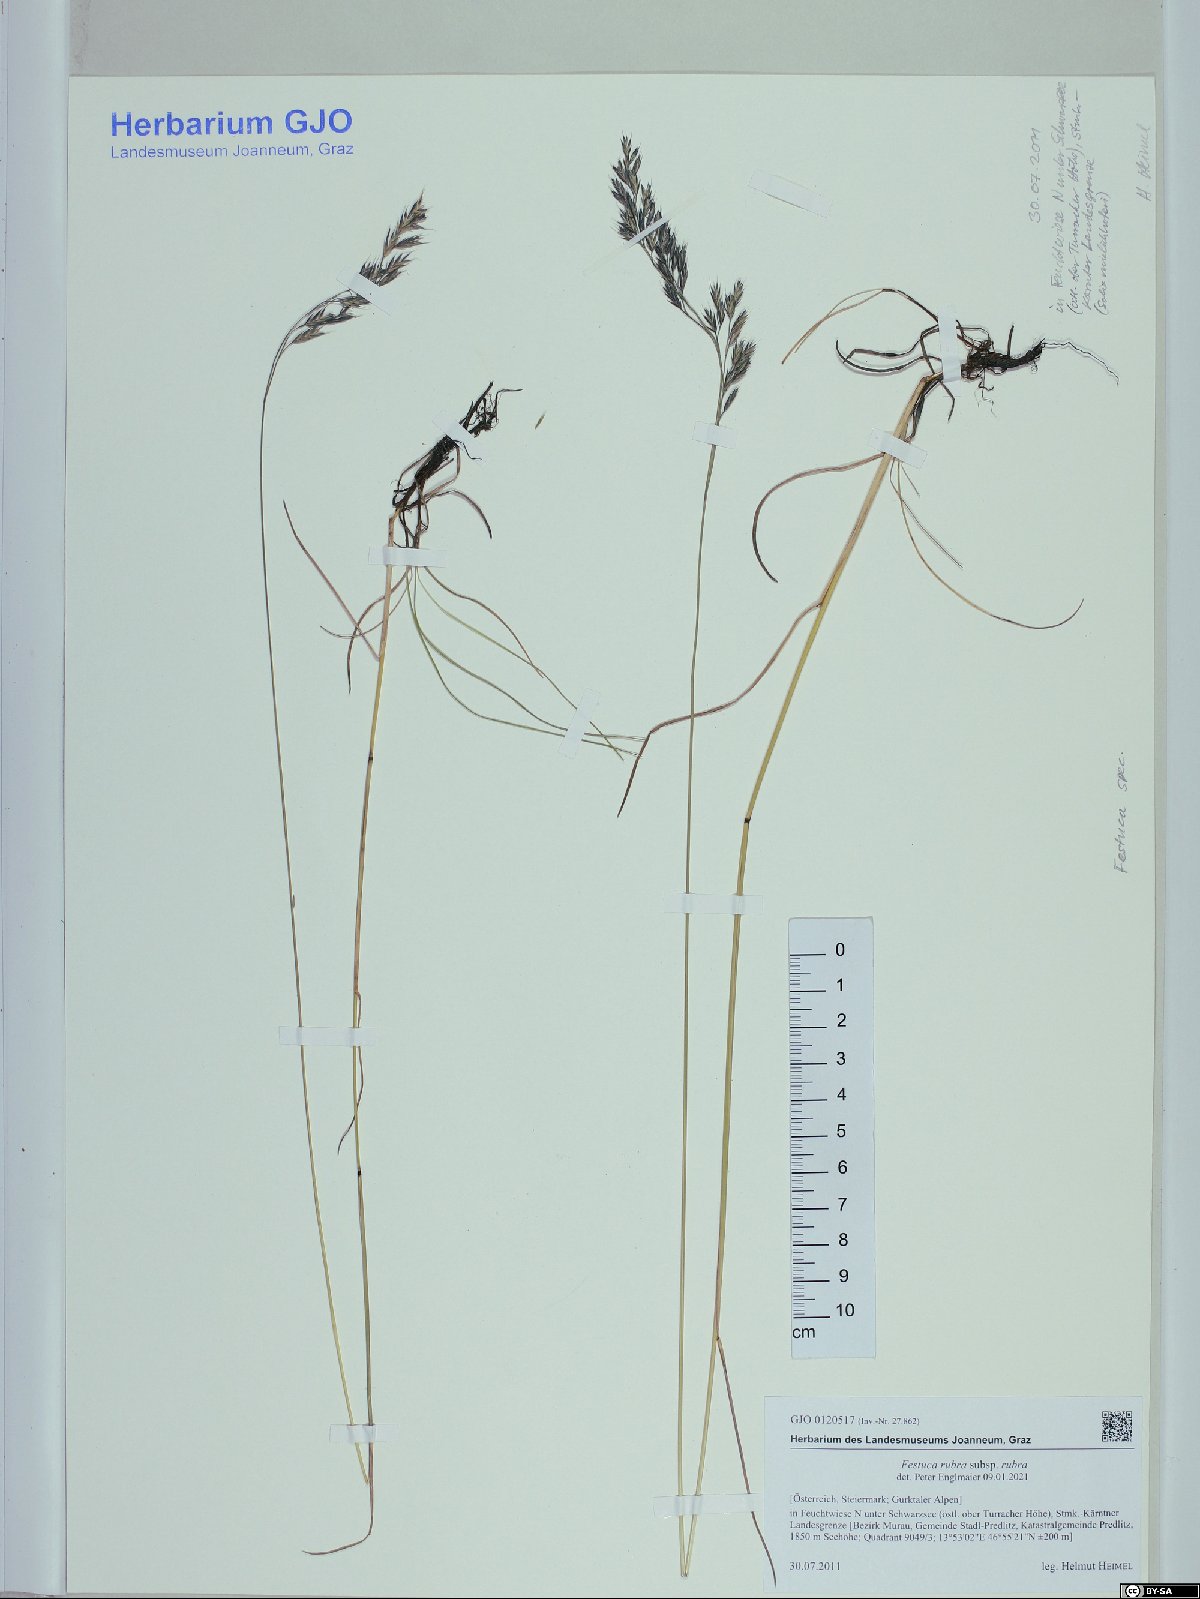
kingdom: Plantae
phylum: Tracheophyta
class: Liliopsida
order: Poales
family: Poaceae
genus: Festuca
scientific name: Festuca rubra
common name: Red fescue
